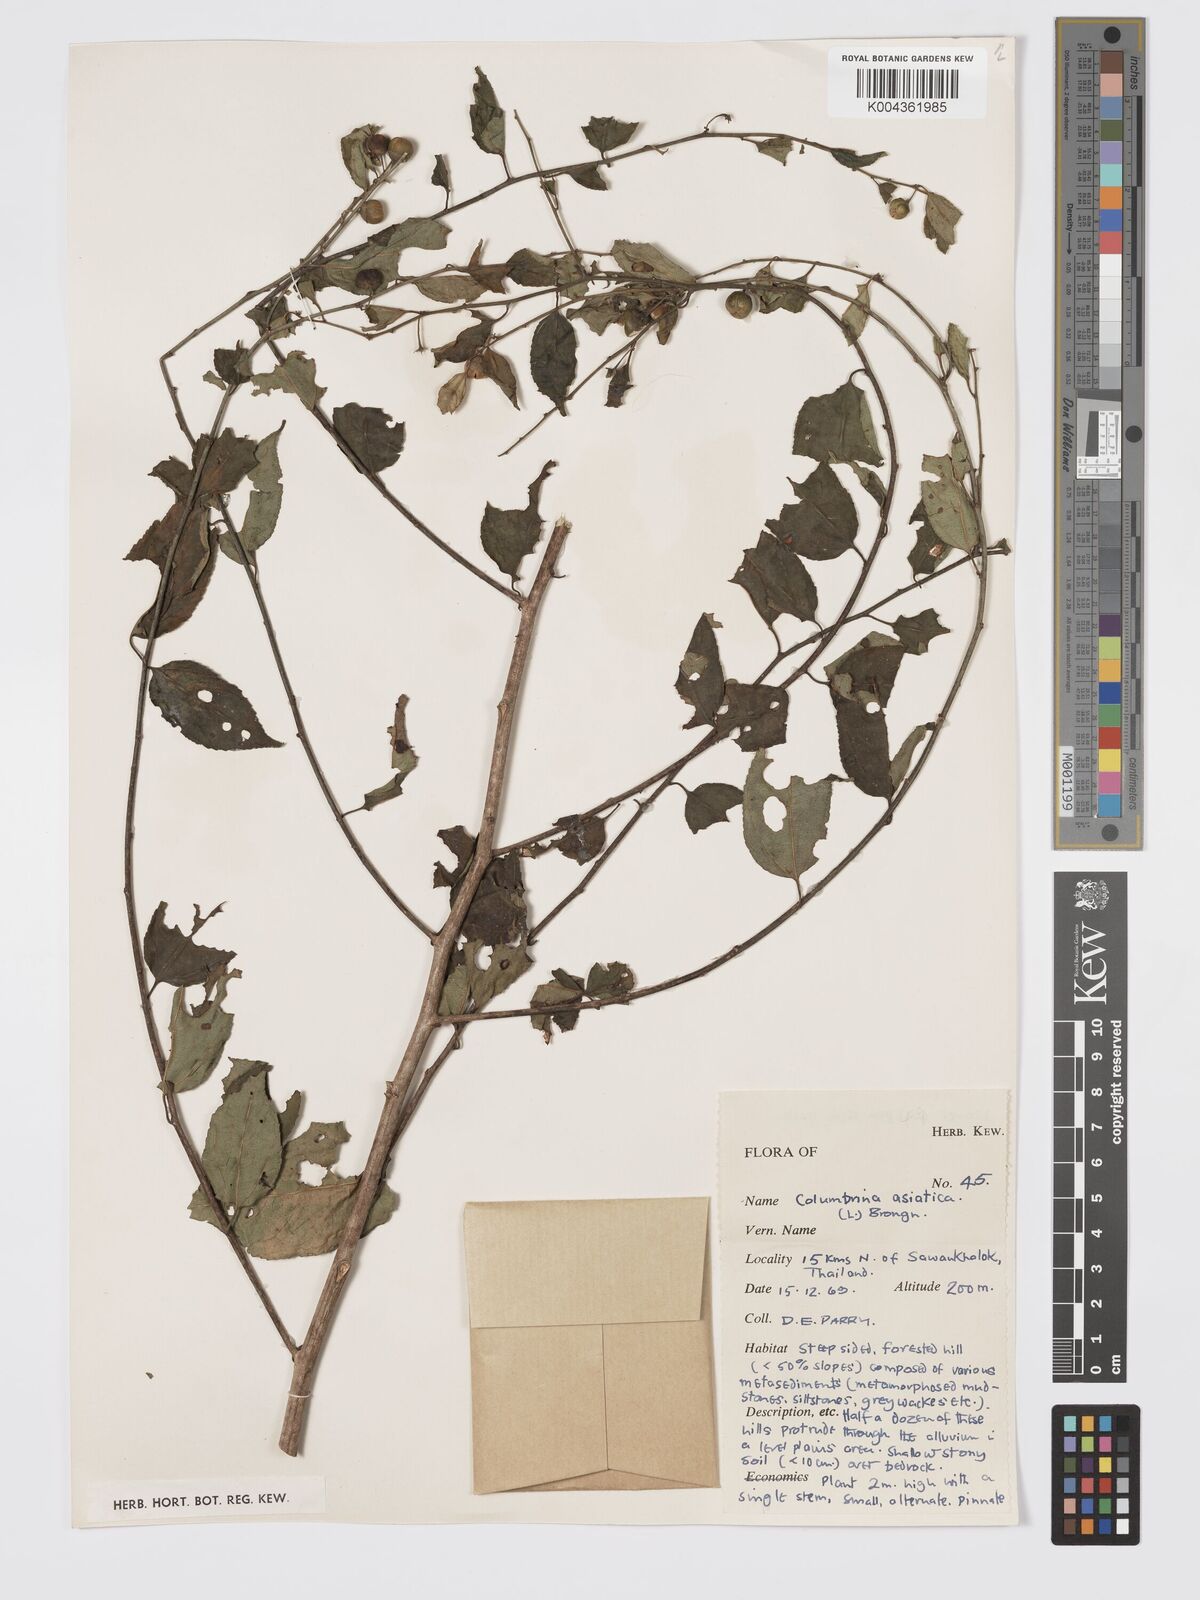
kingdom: Plantae
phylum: Tracheophyta
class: Magnoliopsida
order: Rosales
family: Rhamnaceae
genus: Colubrina
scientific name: Colubrina javanica
